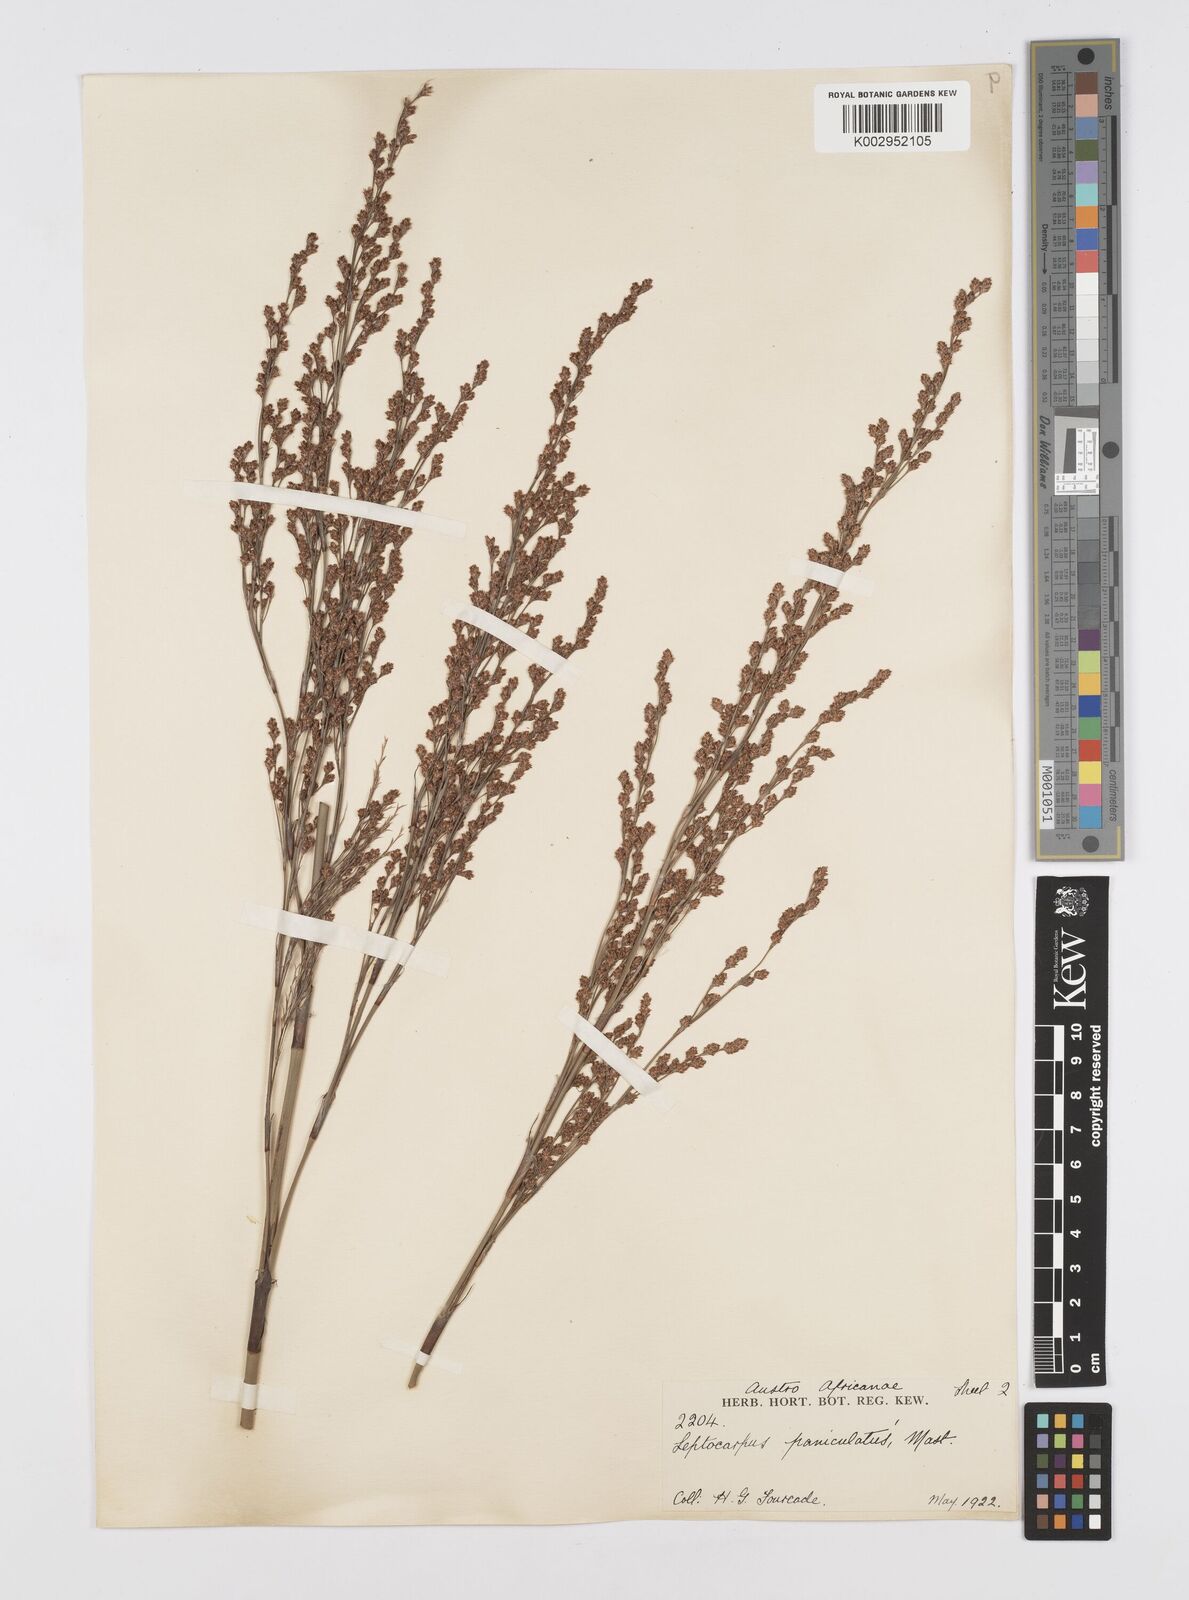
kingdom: Plantae
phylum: Tracheophyta
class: Liliopsida
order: Poales
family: Restionaceae
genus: Restio
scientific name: Restio paniculatus
